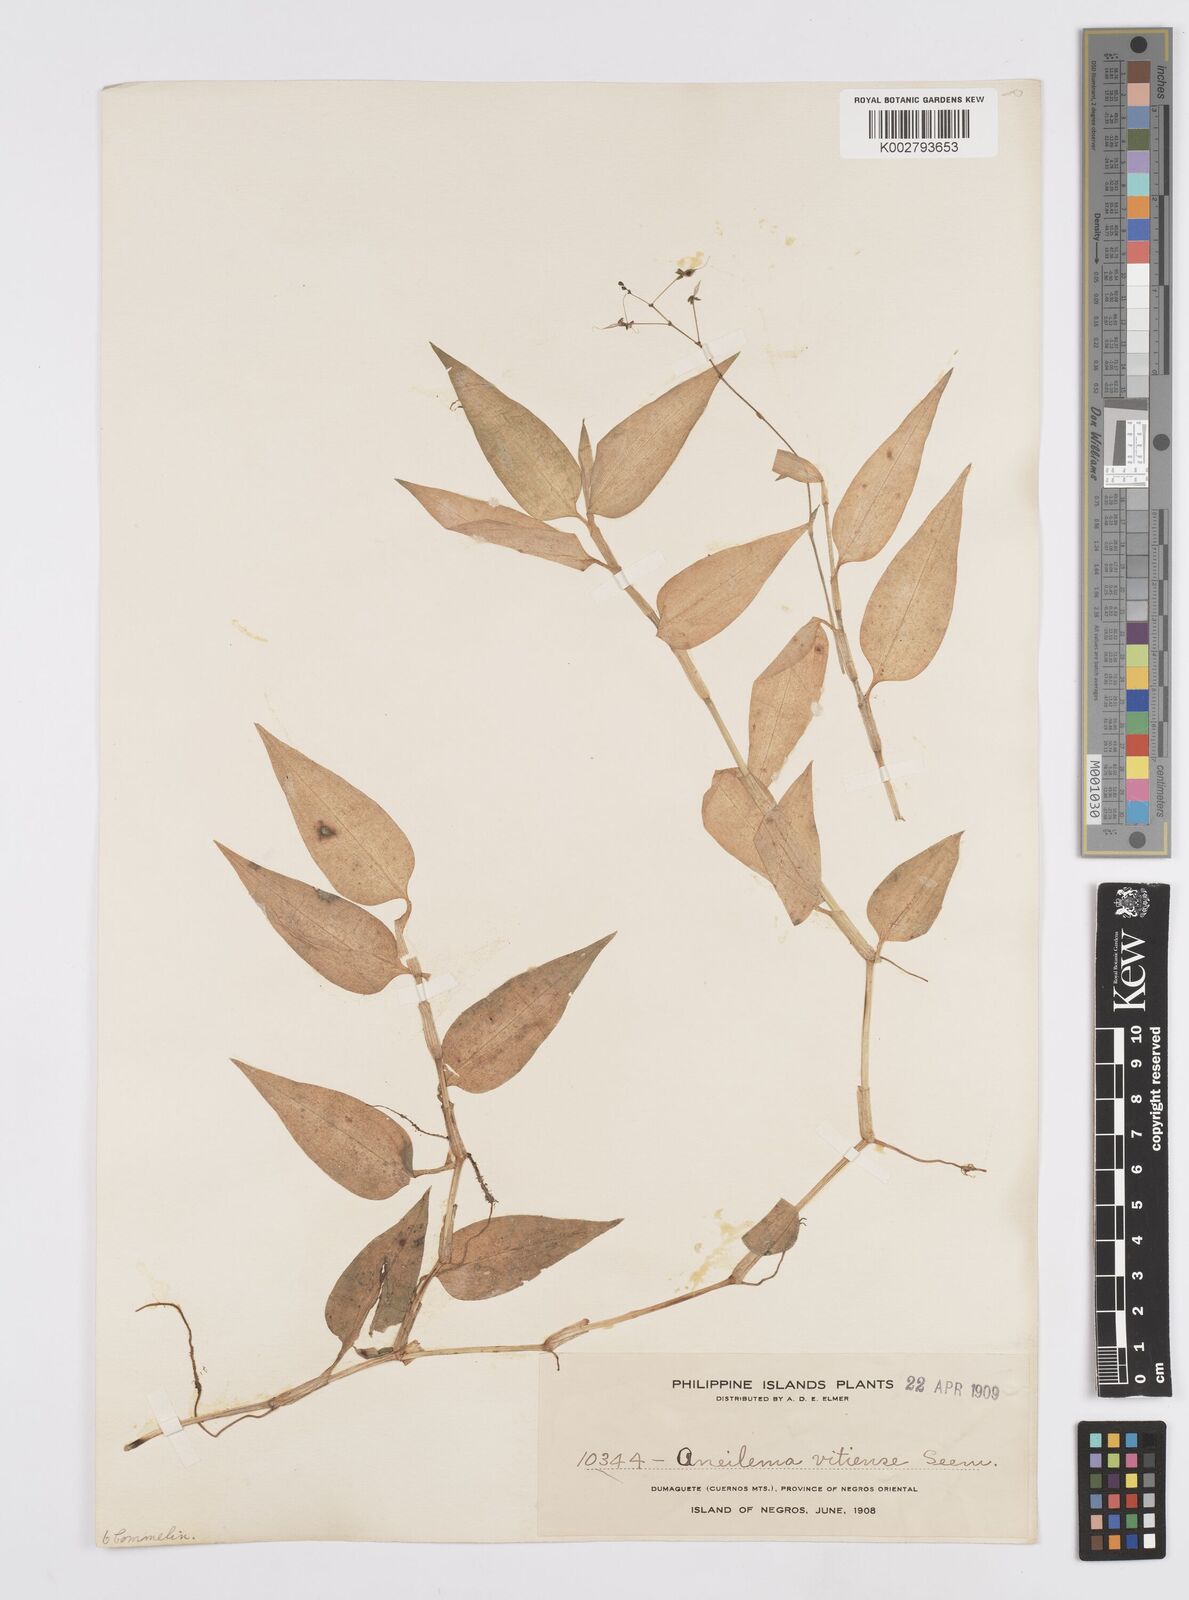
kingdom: Plantae
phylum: Tracheophyta
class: Liliopsida
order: Commelinales
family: Commelinaceae
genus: Murdannia
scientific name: Murdannia
